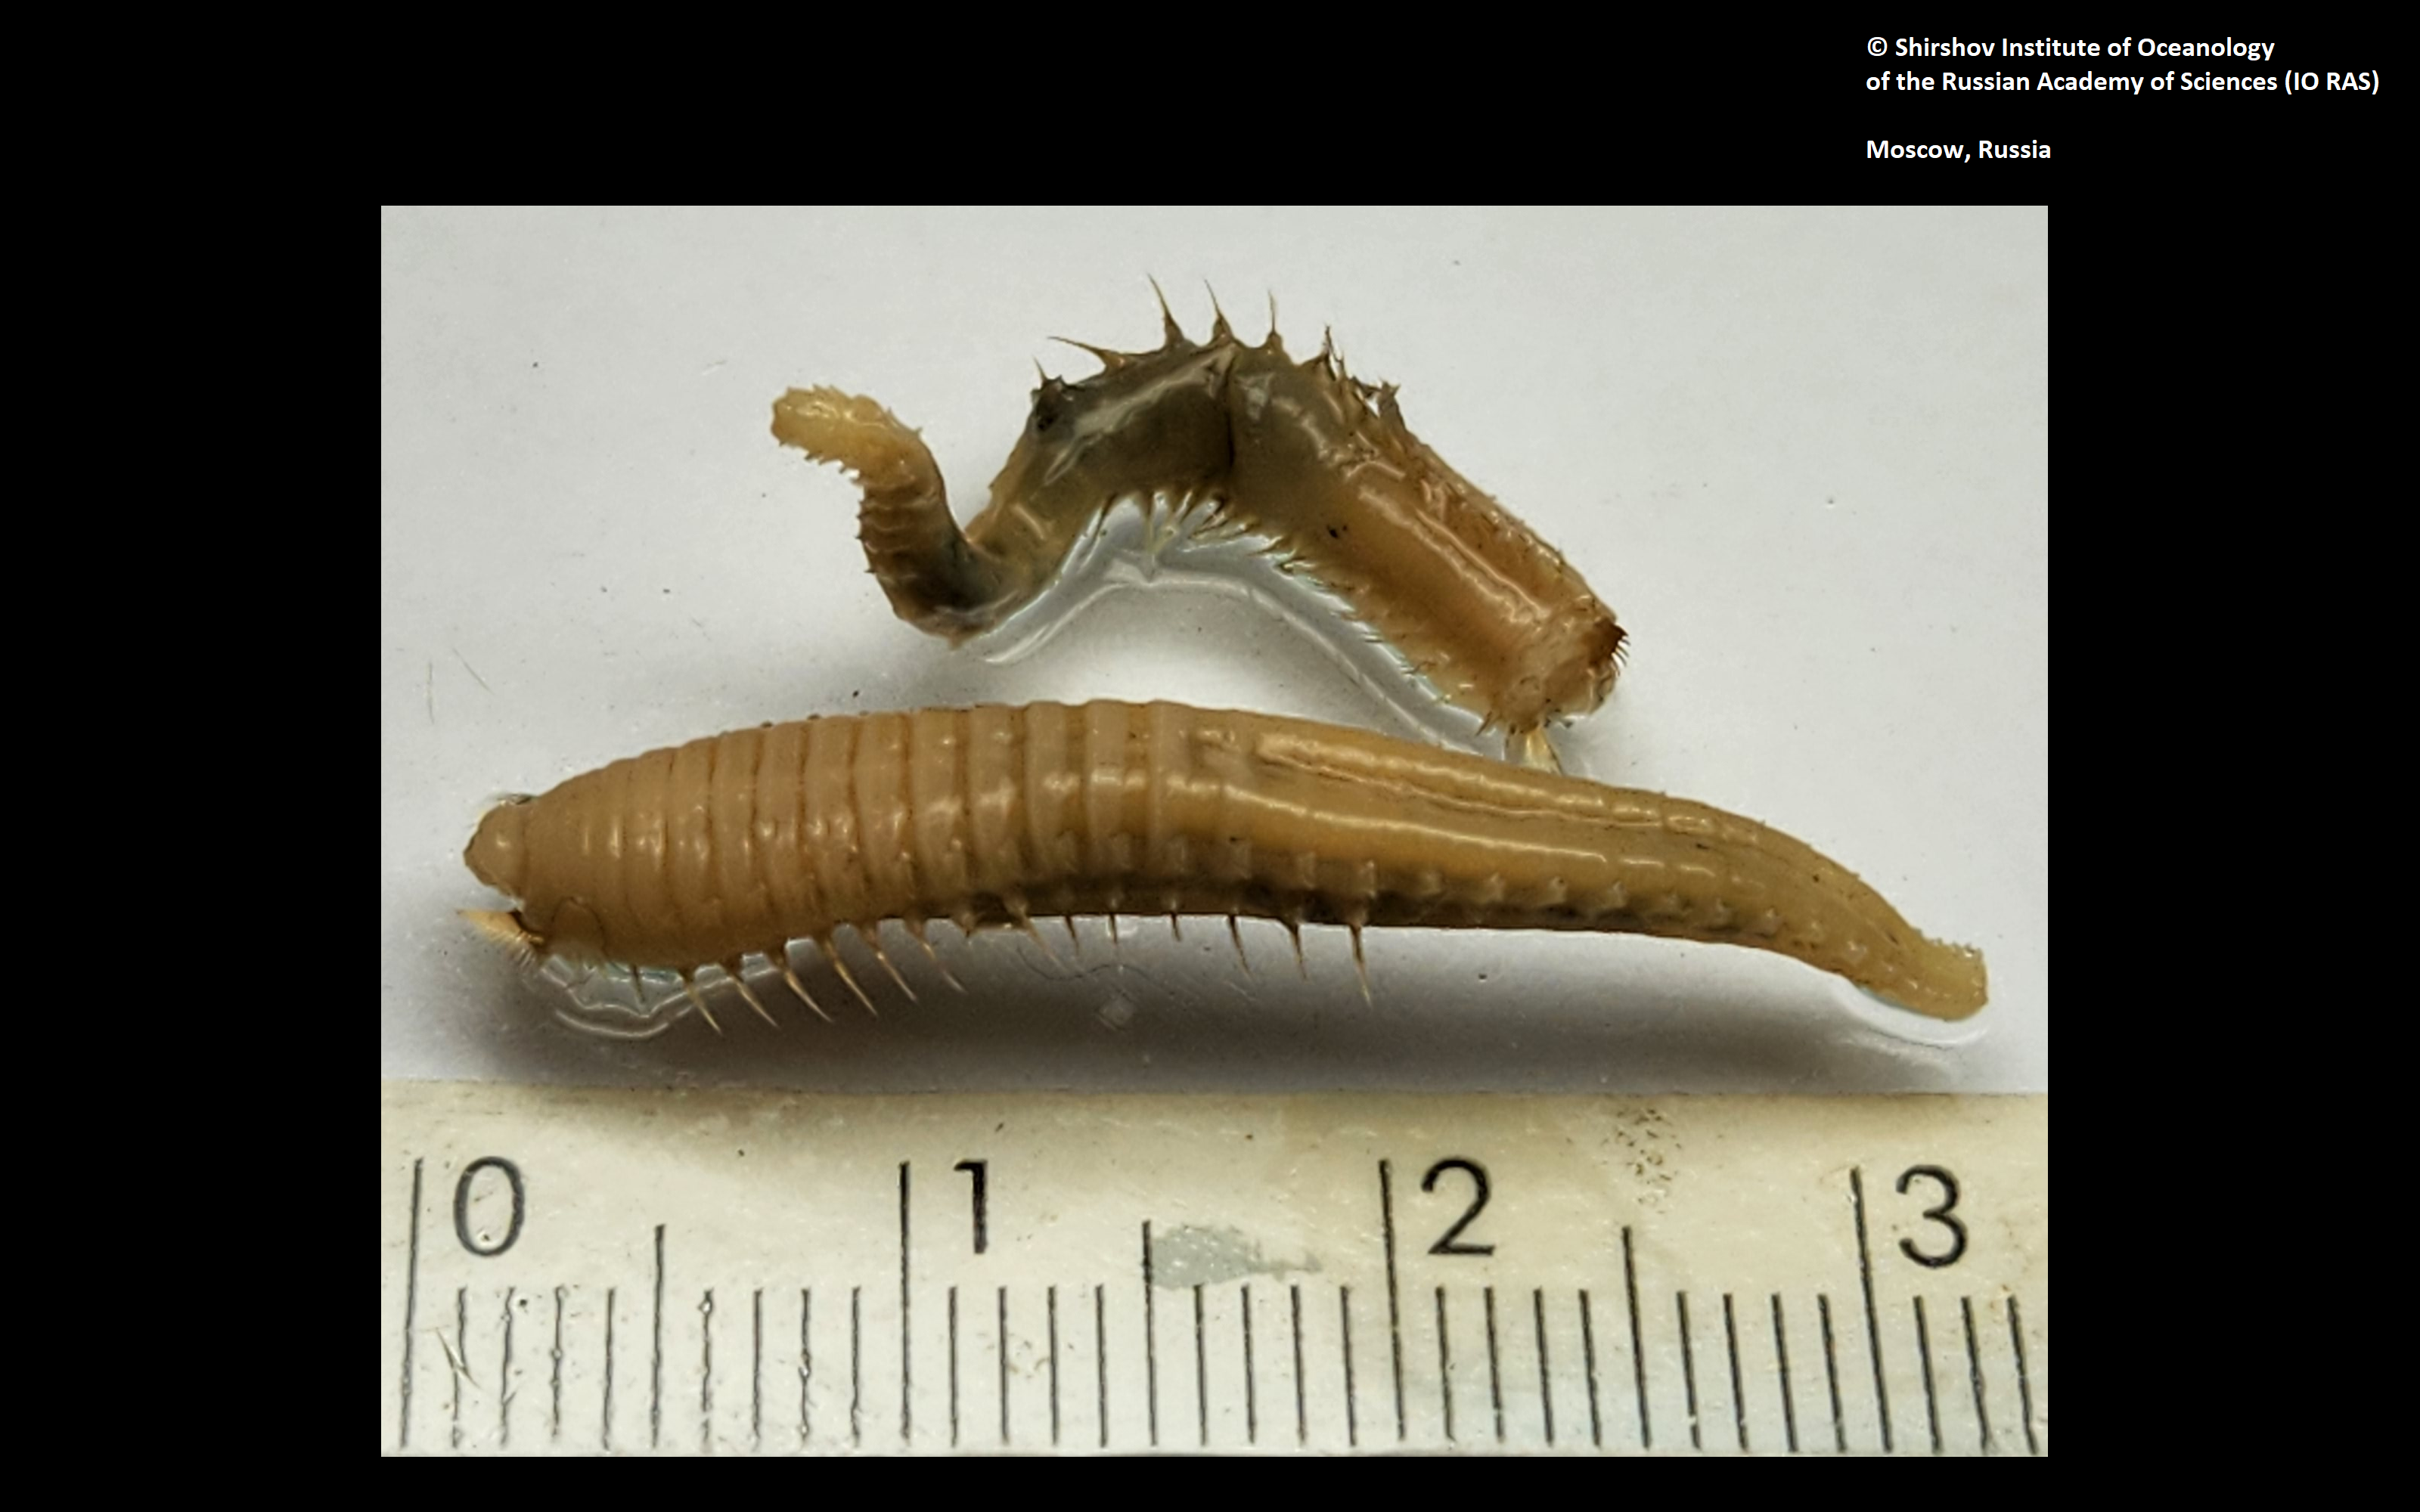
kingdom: Animalia
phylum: Annelida
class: Polychaeta
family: Ampharetidae
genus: Amphicteis
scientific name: Amphicteis nikiti
